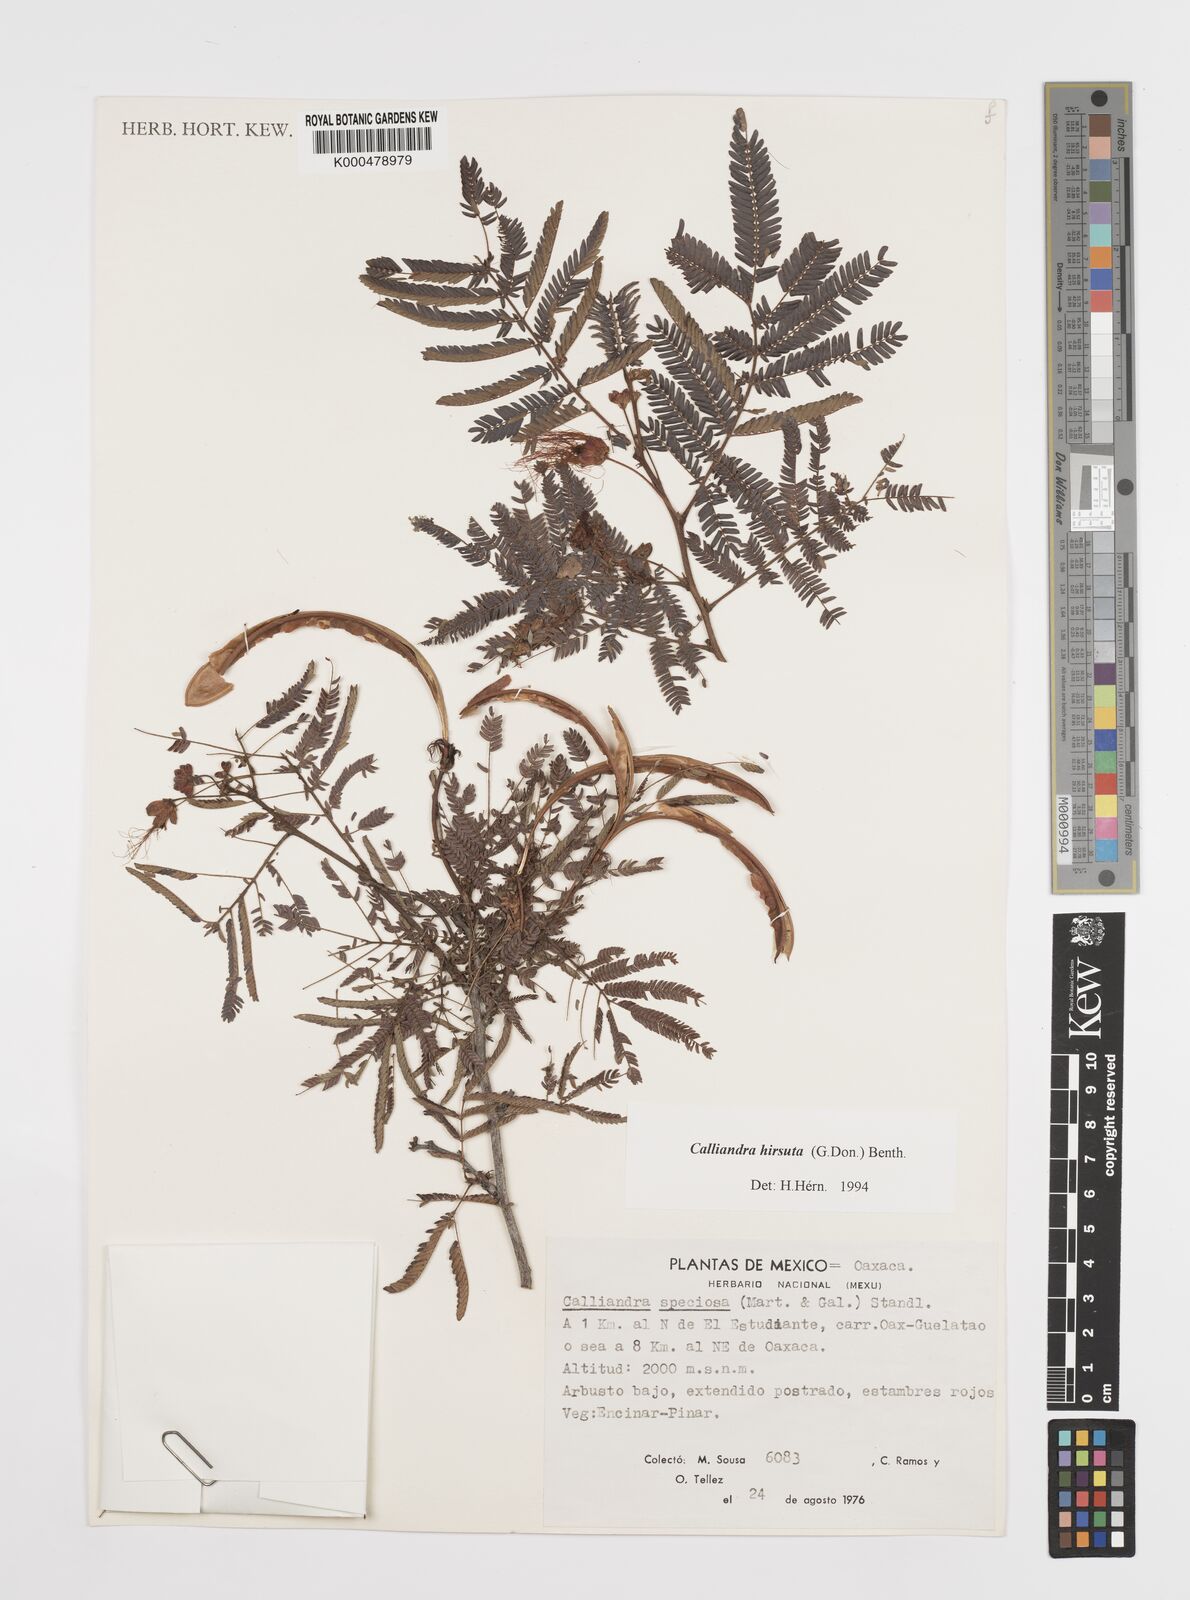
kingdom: Plantae
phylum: Tracheophyta
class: Magnoliopsida
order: Fabales
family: Fabaceae
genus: Calliandra
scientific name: Calliandra hirsuta
